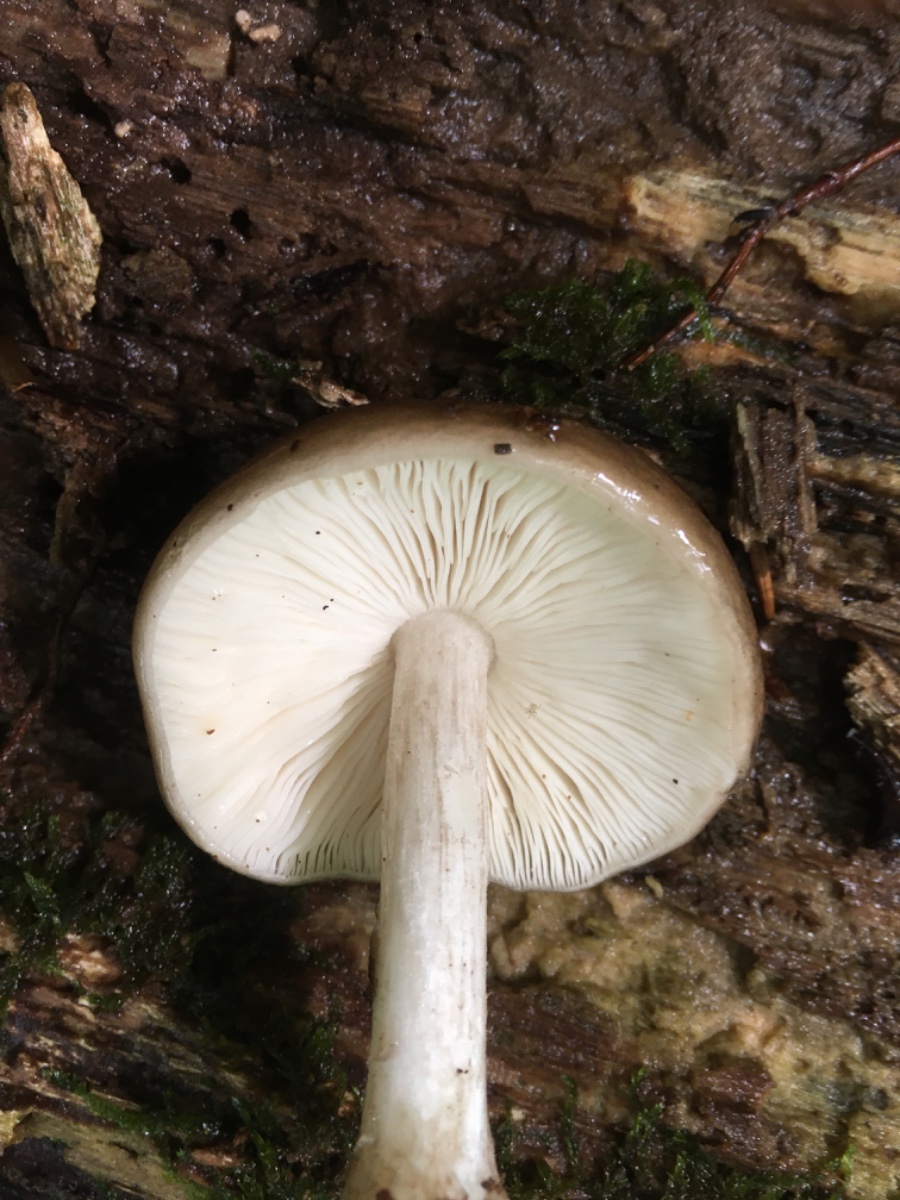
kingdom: Fungi
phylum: Basidiomycota
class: Agaricomycetes
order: Agaricales
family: Pluteaceae
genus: Pluteus
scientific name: Pluteus cervinus
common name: sodfarvet skærmhat
